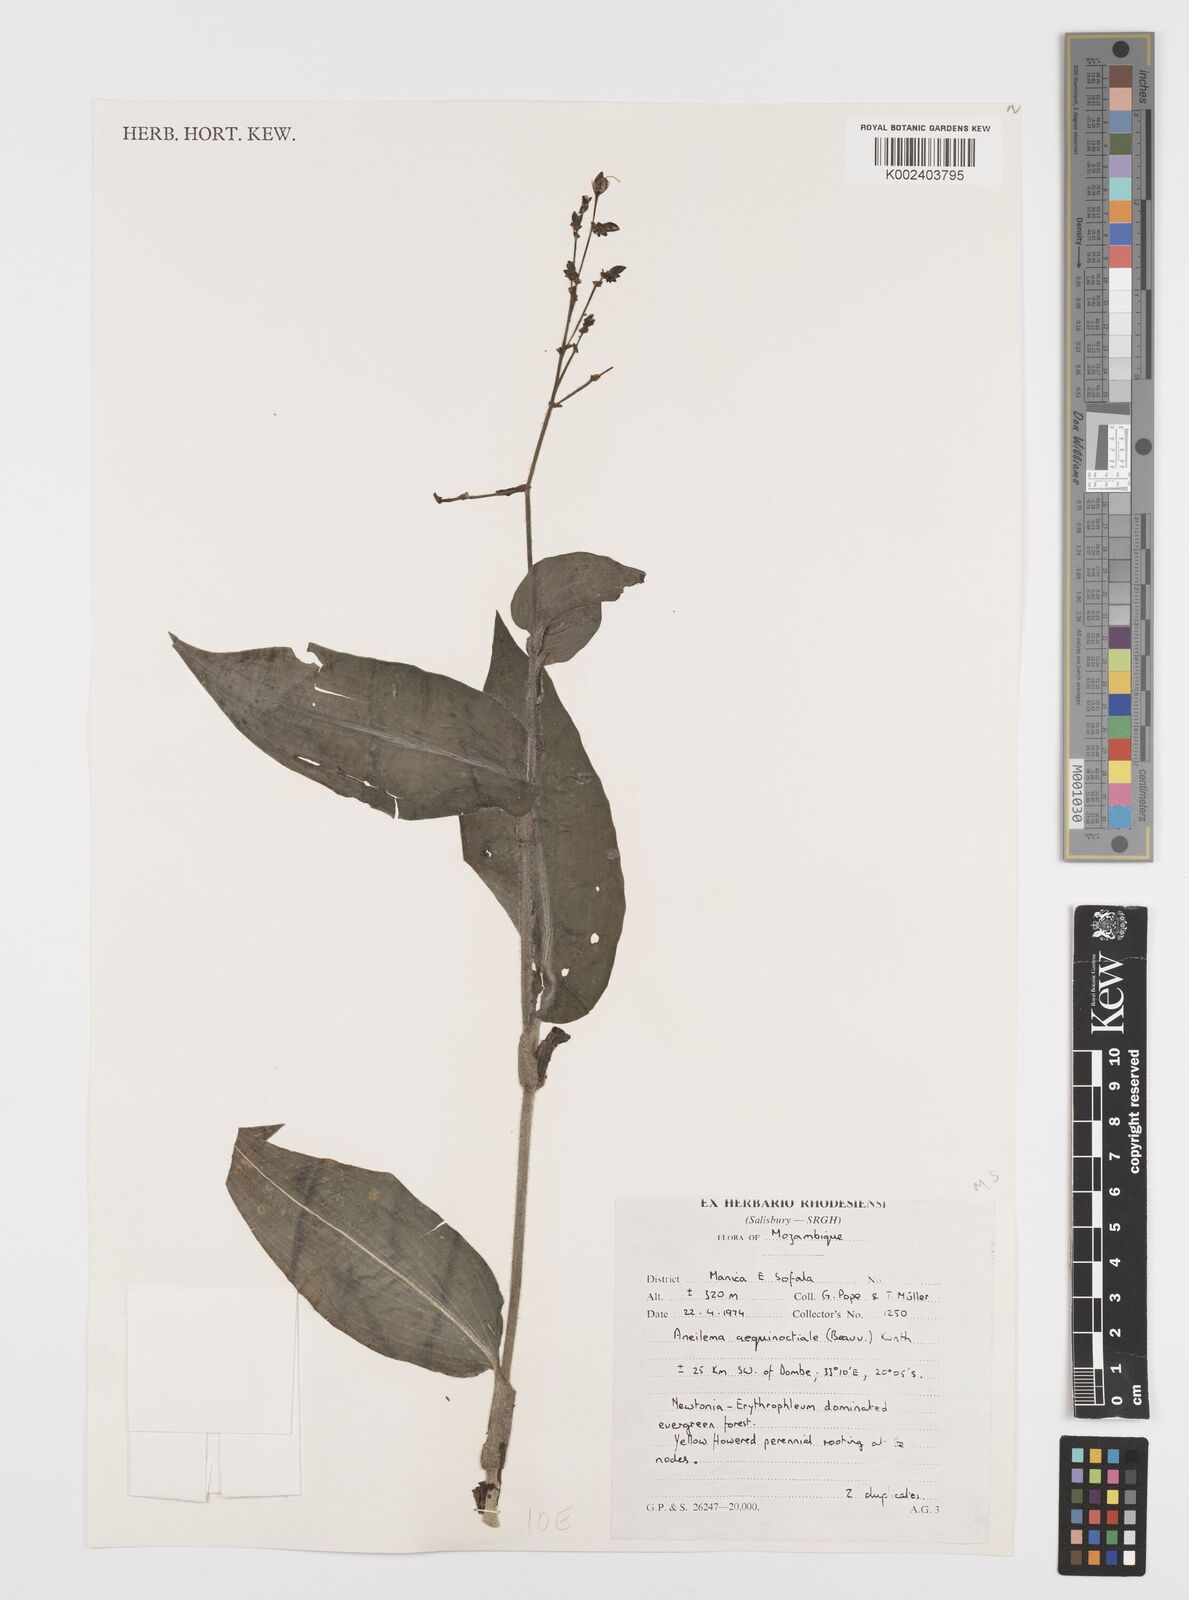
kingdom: Plantae
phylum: Tracheophyta
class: Liliopsida
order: Commelinales
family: Commelinaceae
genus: Aneilema
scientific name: Aneilema aequinoctiale
